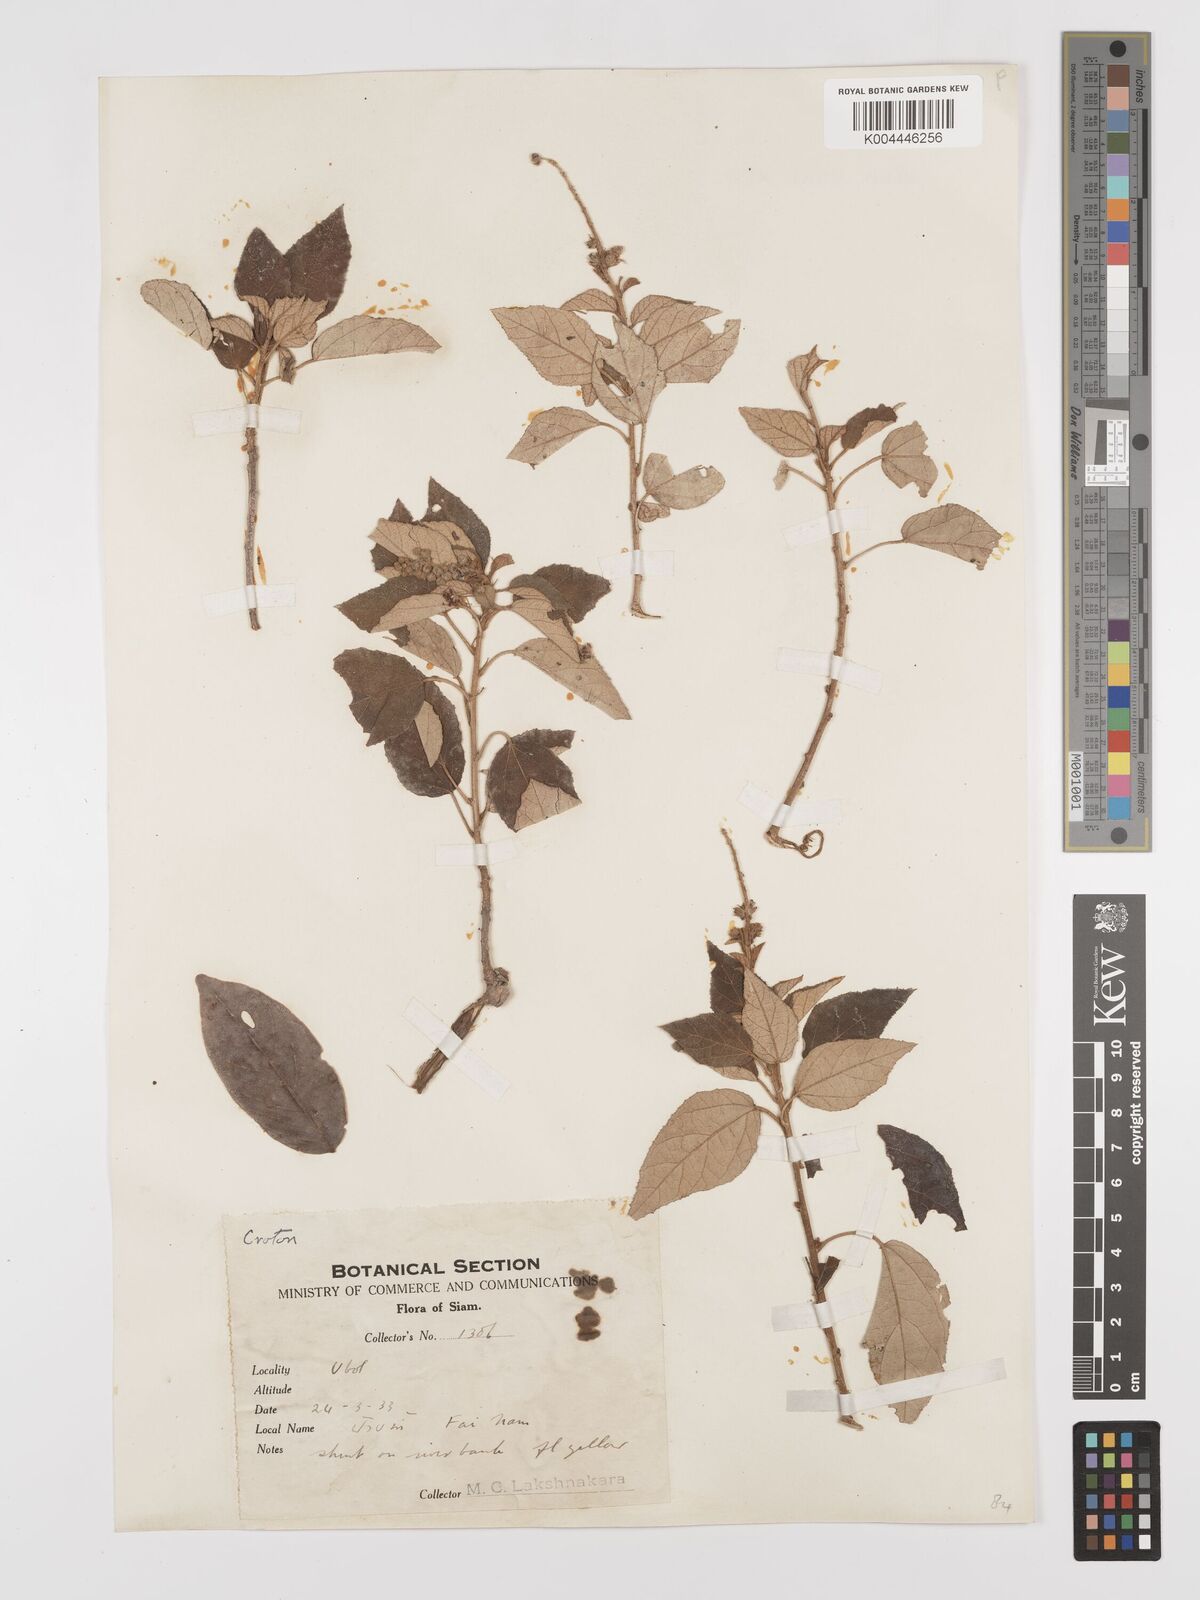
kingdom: Plantae
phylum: Tracheophyta
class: Magnoliopsida
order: Malpighiales
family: Euphorbiaceae
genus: Croton
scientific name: Croton krabas
